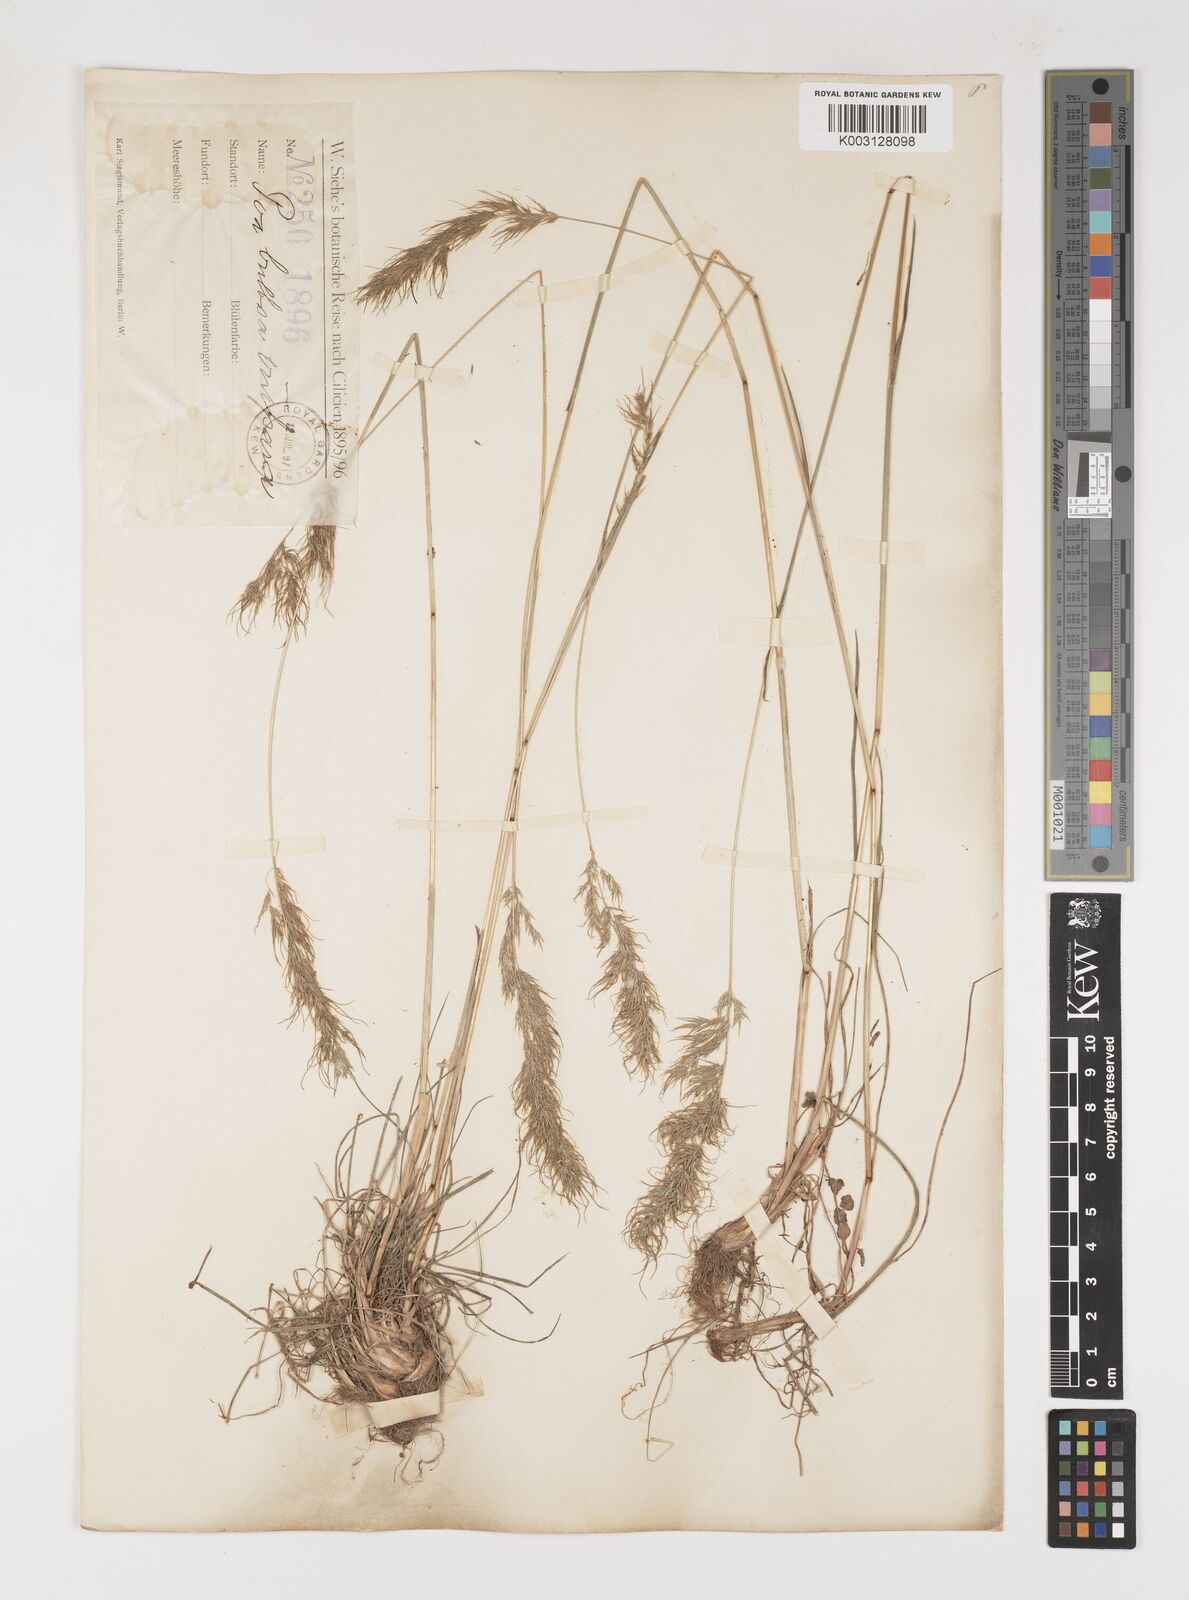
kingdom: Plantae
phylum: Tracheophyta
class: Liliopsida
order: Poales
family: Poaceae
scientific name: Poaceae
